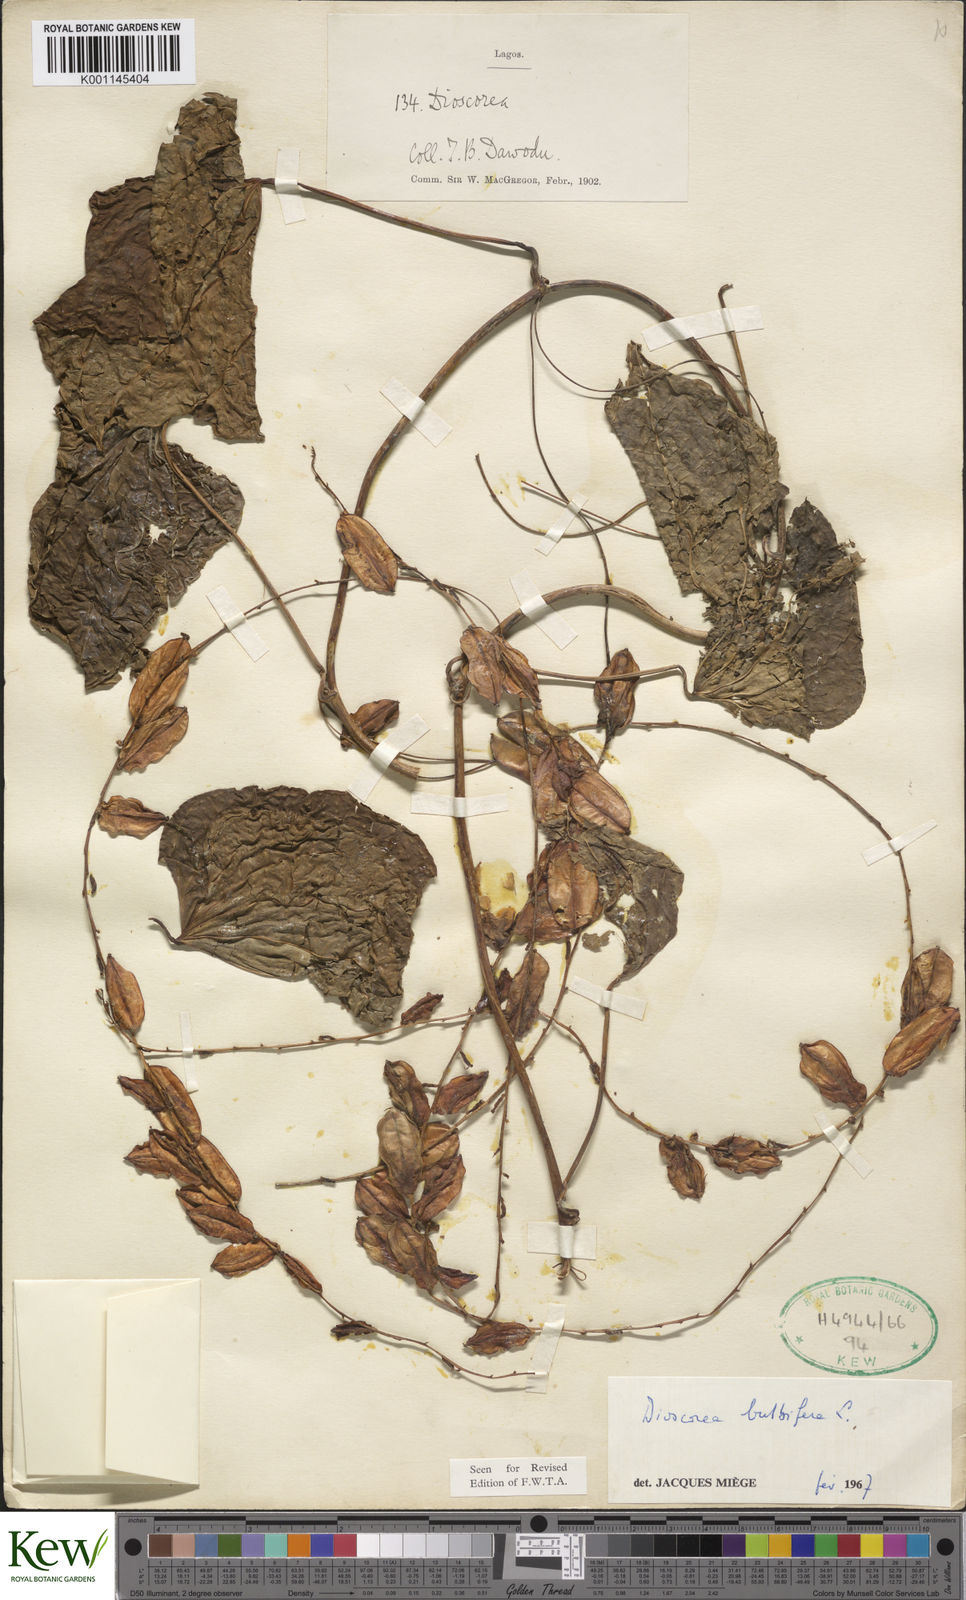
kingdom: Plantae
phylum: Tracheophyta
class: Liliopsida
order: Dioscoreales
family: Dioscoreaceae
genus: Dioscorea
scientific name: Dioscorea bulbifera
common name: Air yam
